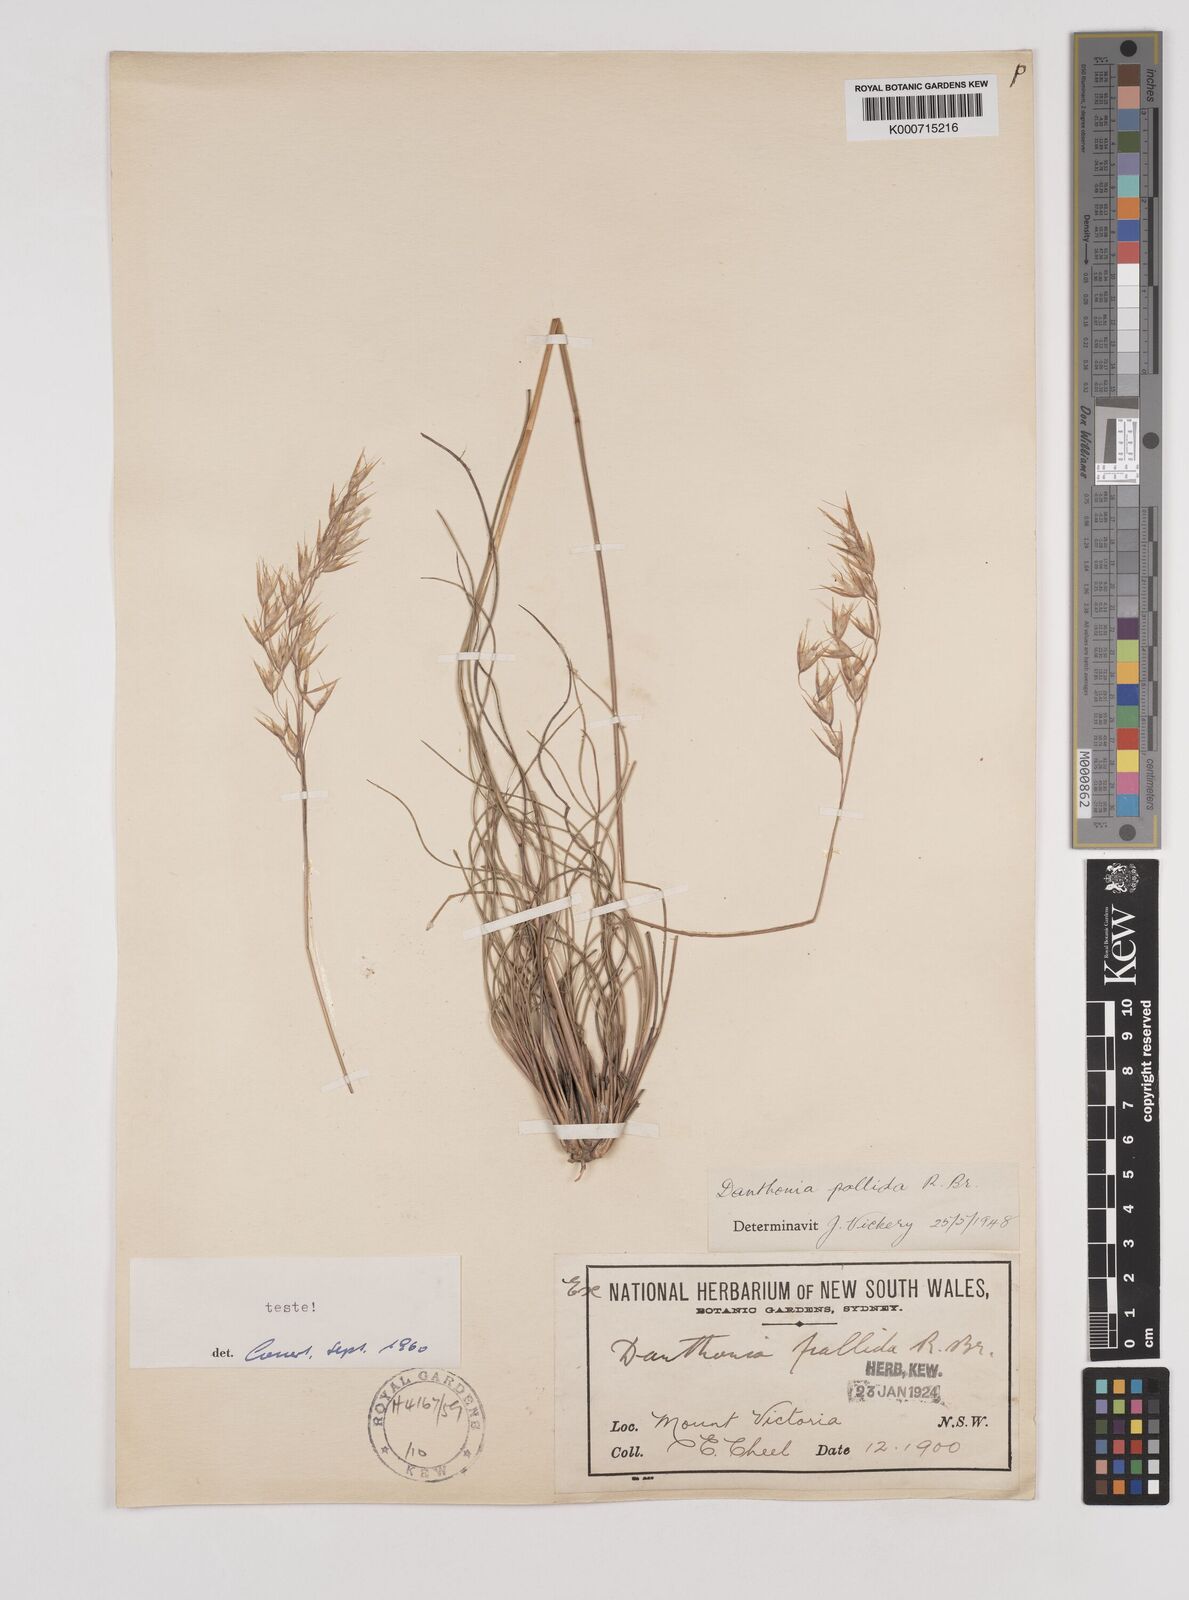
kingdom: Plantae
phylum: Tracheophyta
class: Liliopsida
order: Poales
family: Poaceae
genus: Rytidosperma
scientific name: Rytidosperma
